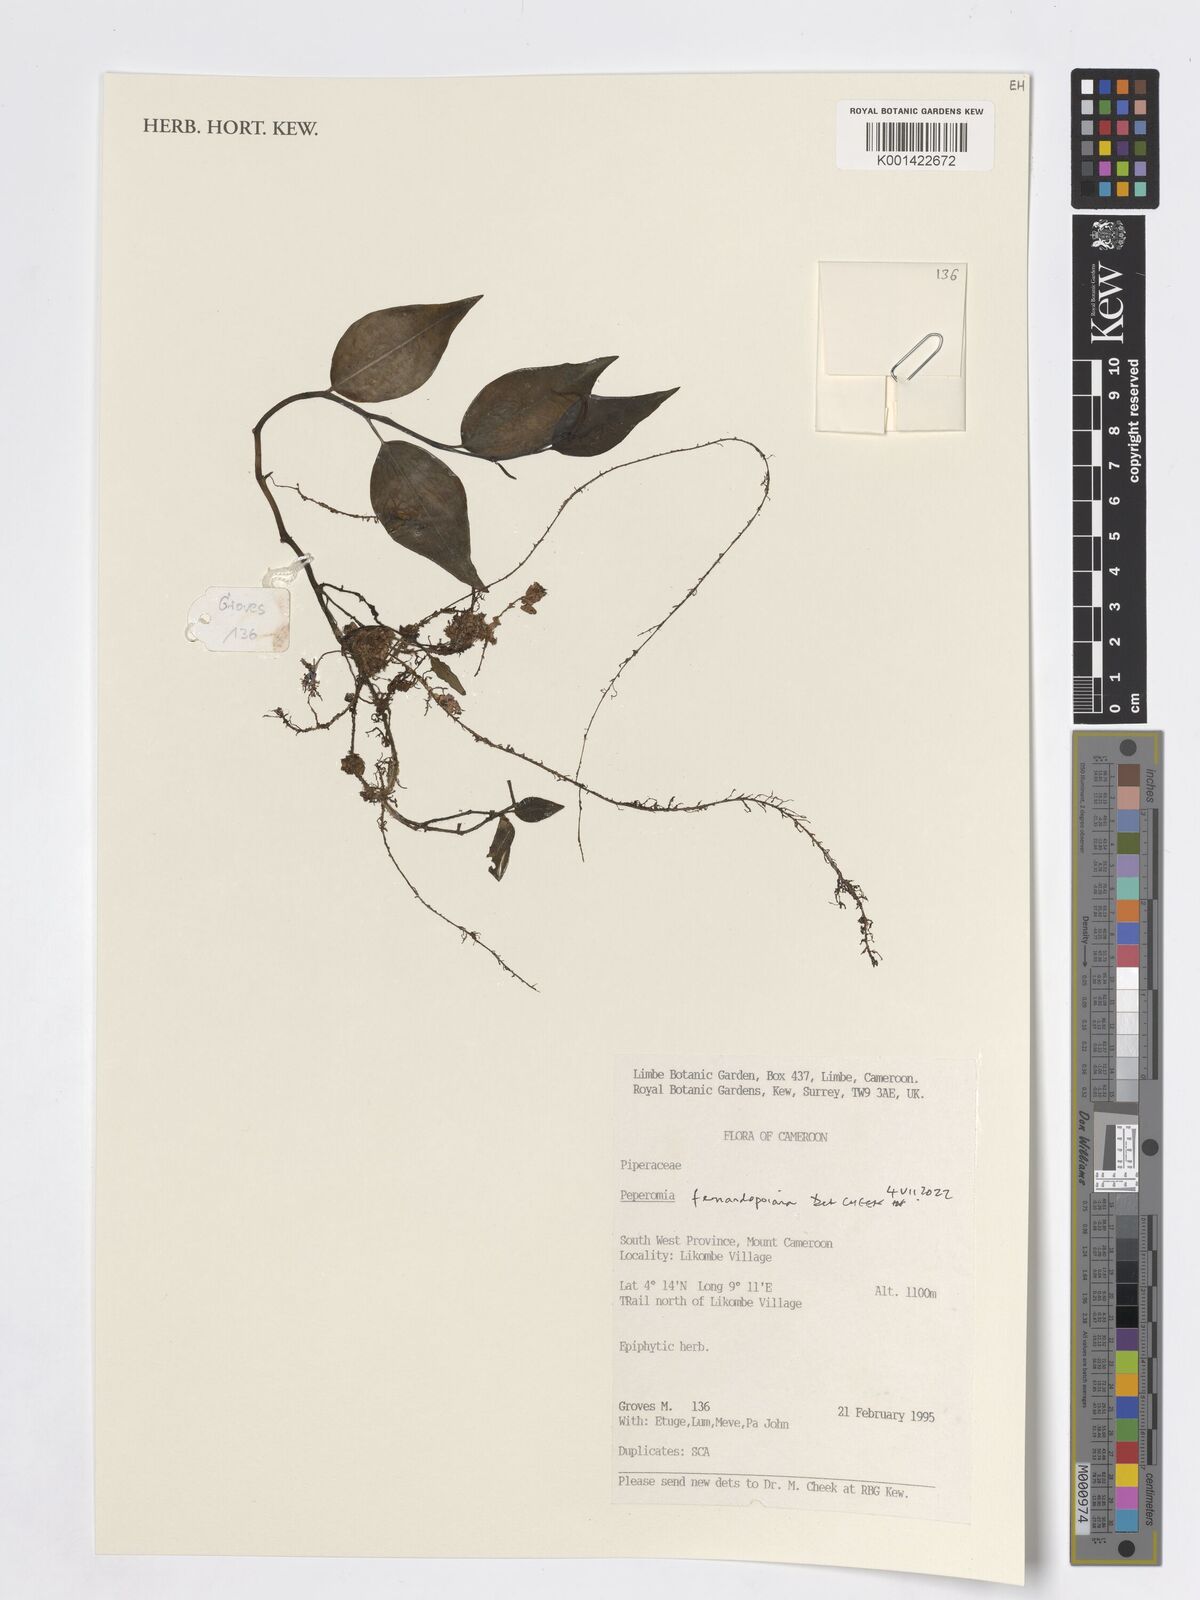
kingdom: Plantae
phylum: Tracheophyta
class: Magnoliopsida
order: Piperales
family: Piperaceae
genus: Peperomia
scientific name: Peperomia fernandopoiana
